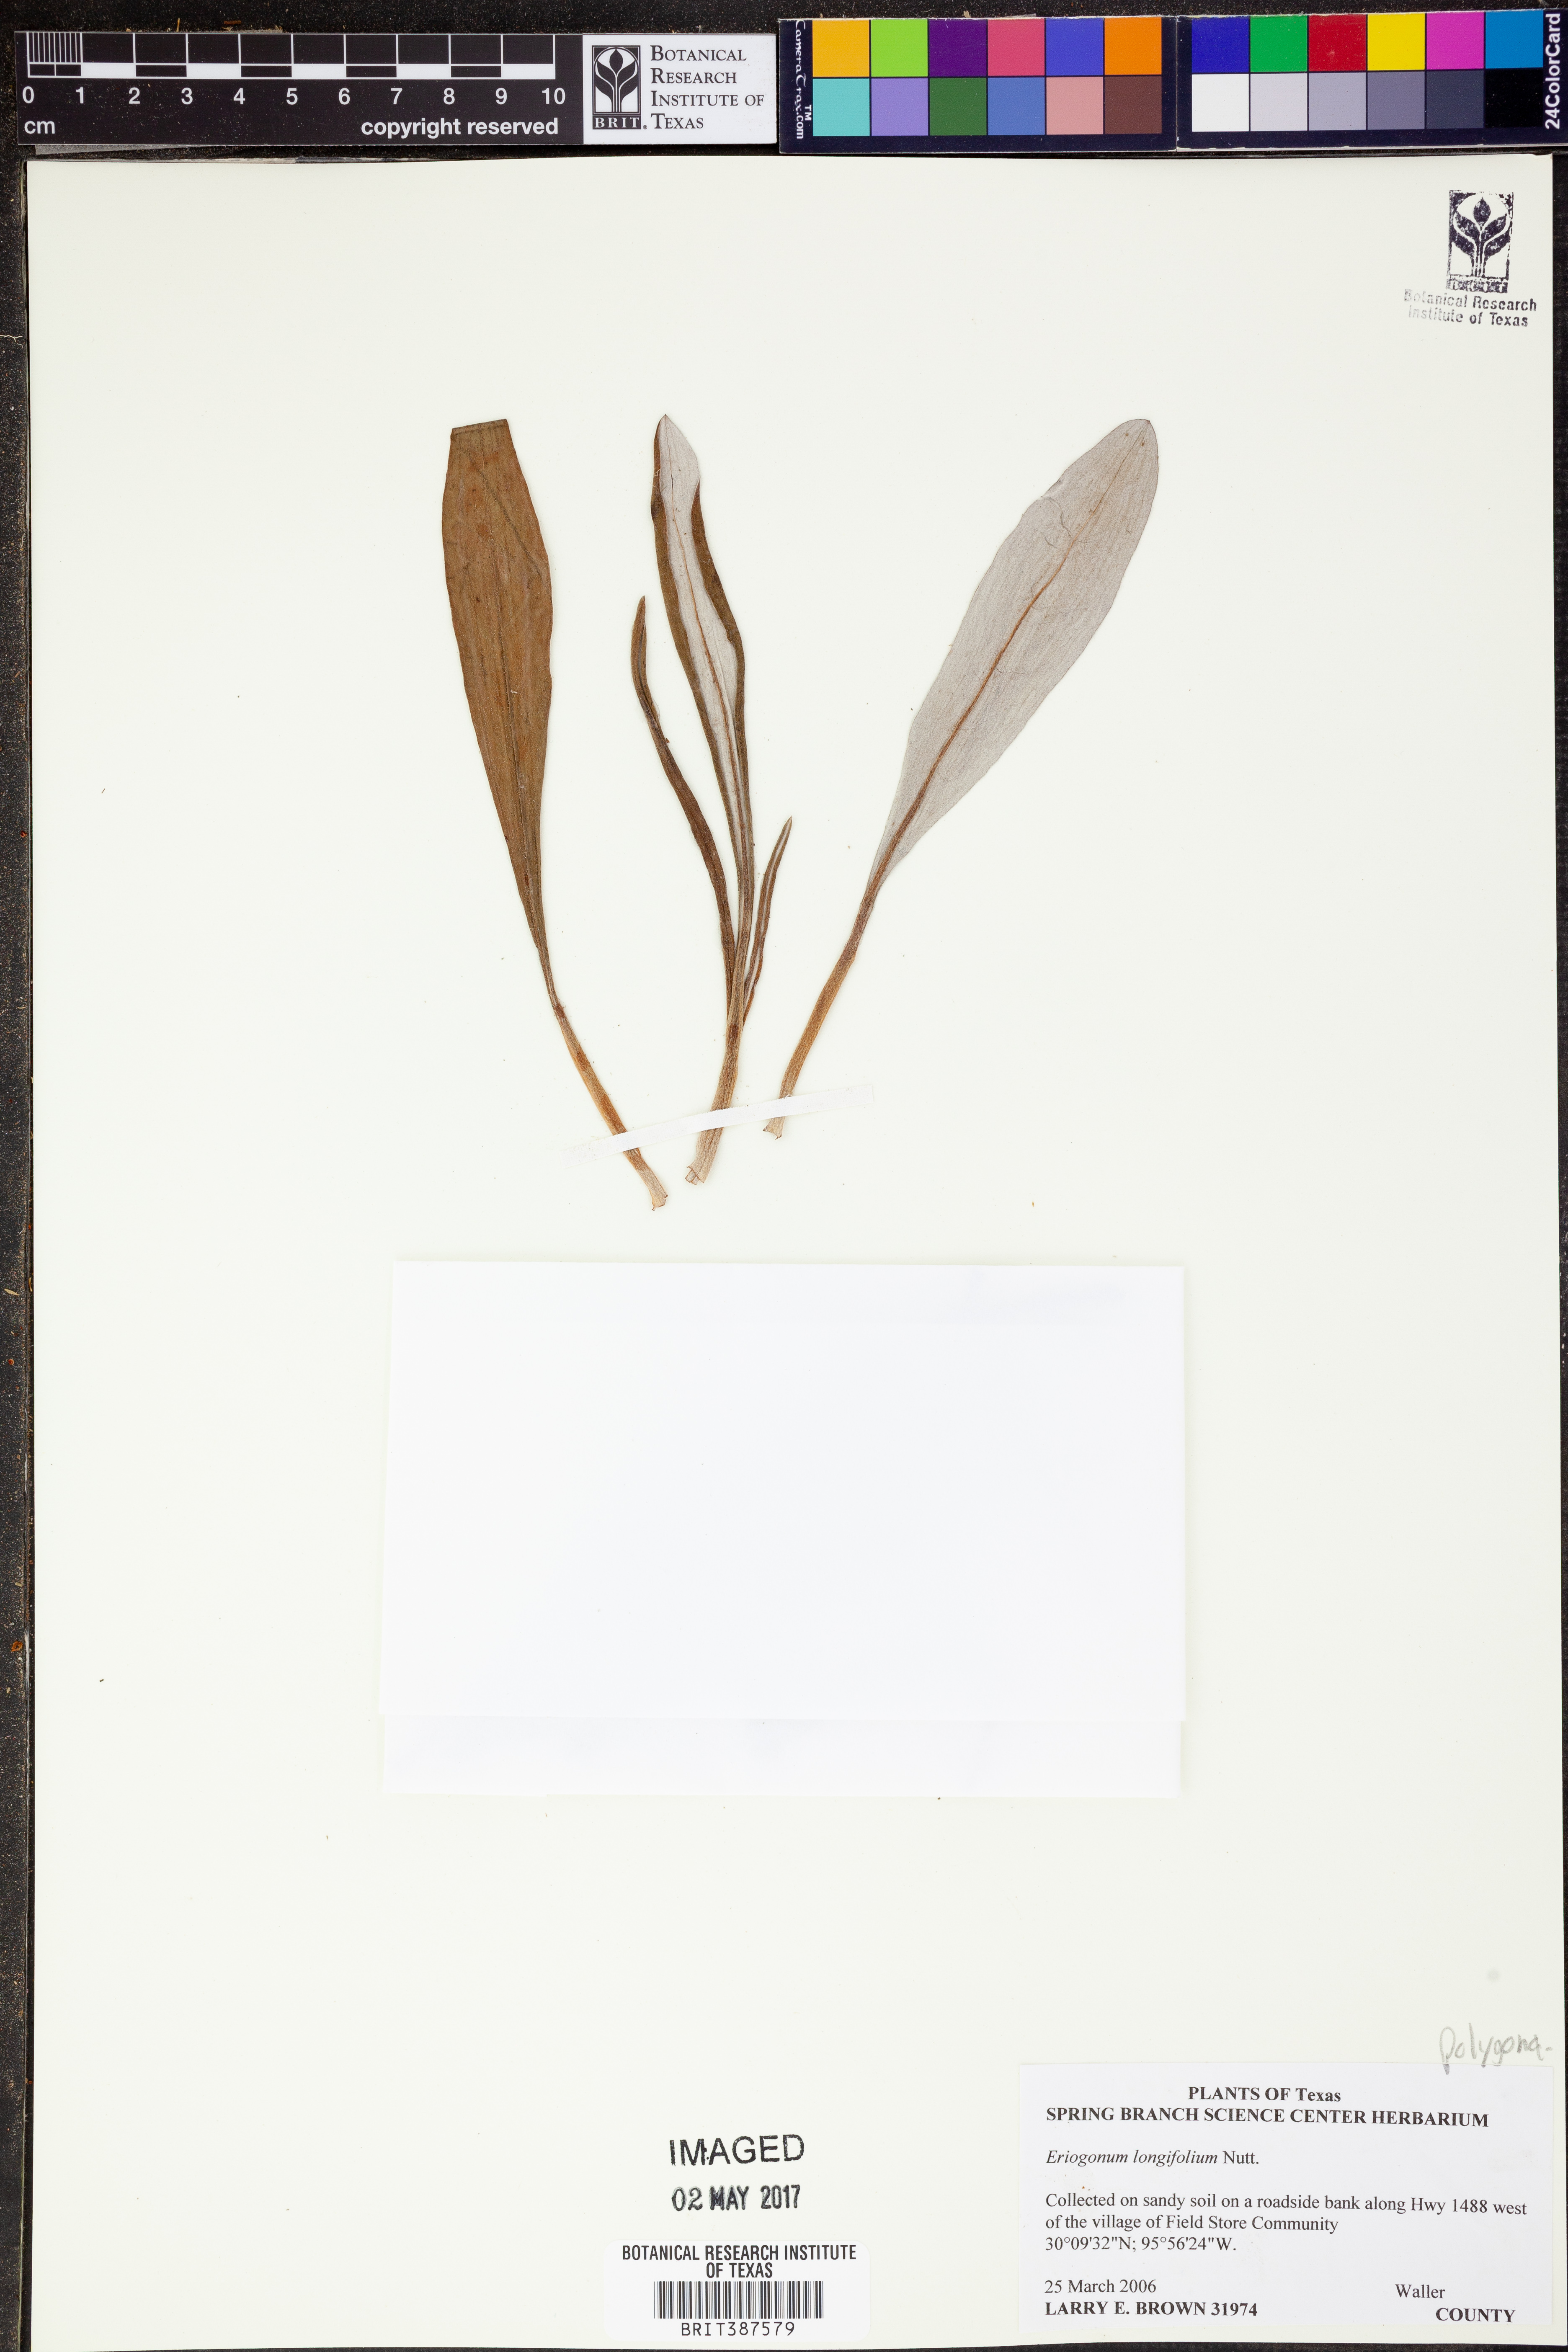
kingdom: Plantae
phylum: Tracheophyta
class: Magnoliopsida
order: Caryophyllales
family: Polygonaceae
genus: Eriogonum
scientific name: Eriogonum longifolium
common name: Longleaf wild buckwheat
